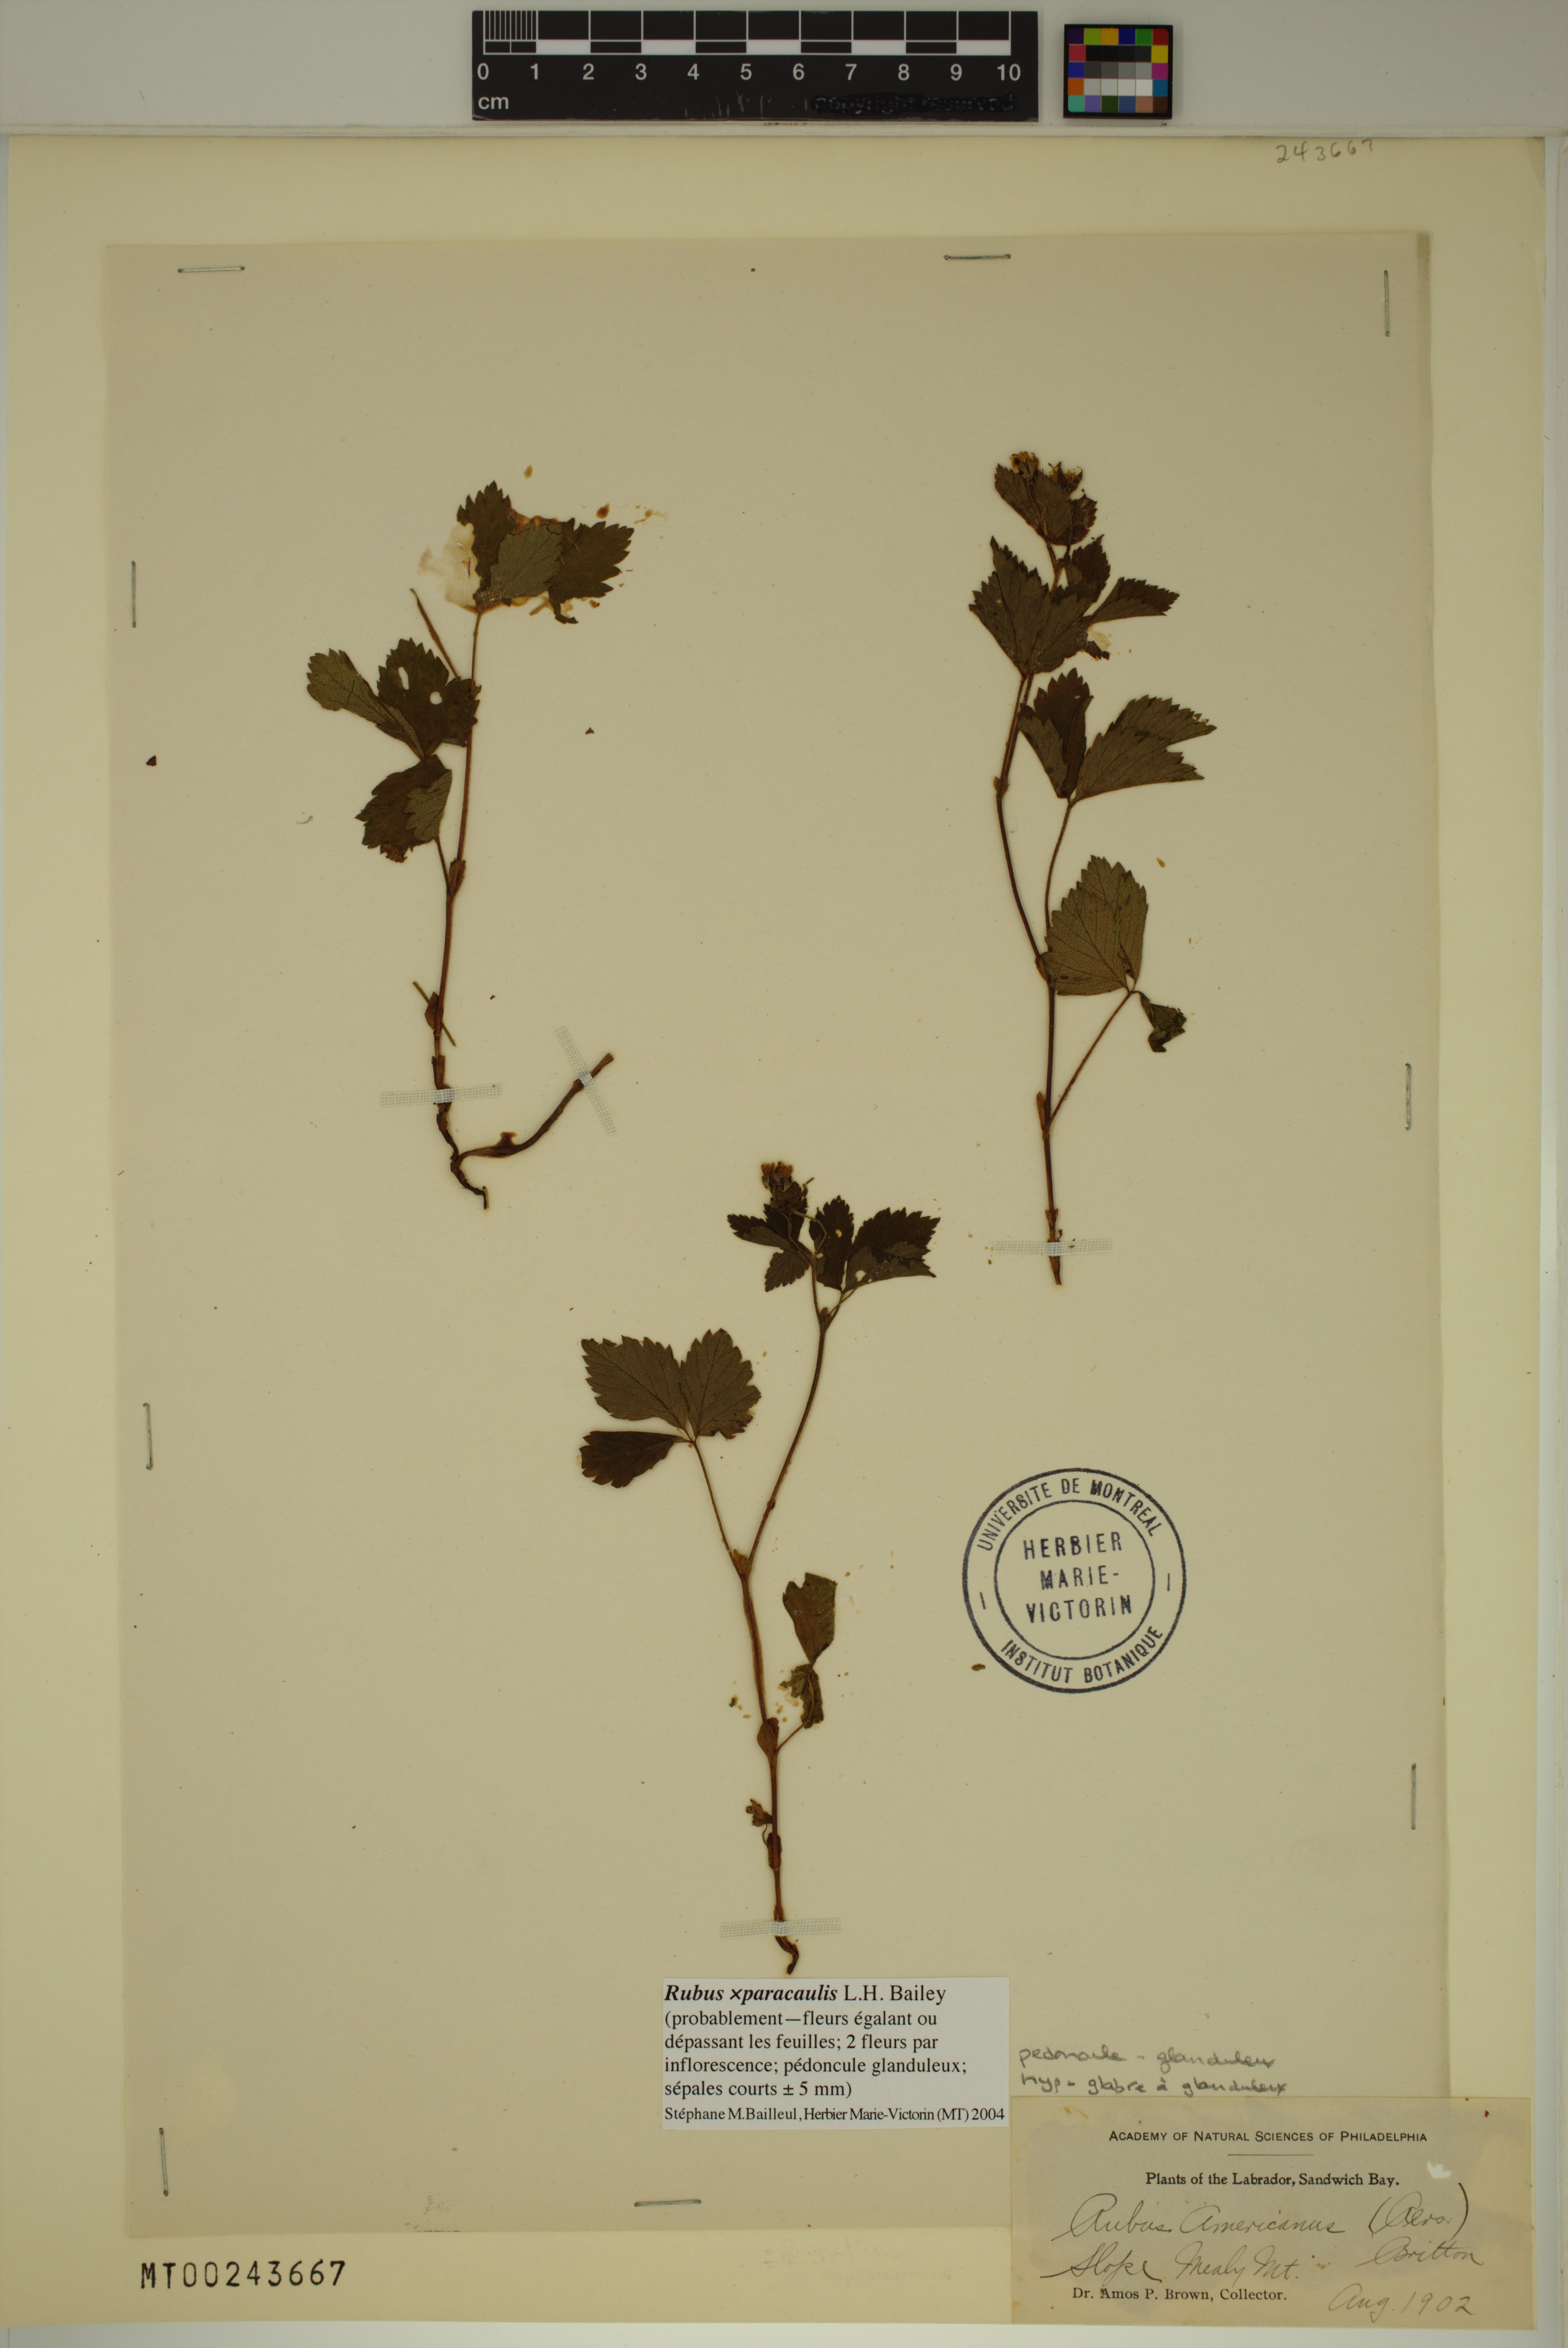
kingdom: Plantae
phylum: Tracheophyta
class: Magnoliopsida
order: Rosales
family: Rosaceae
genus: Rubus
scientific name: Rubus paracaulis
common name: Dwarf white-flowered raspberry
